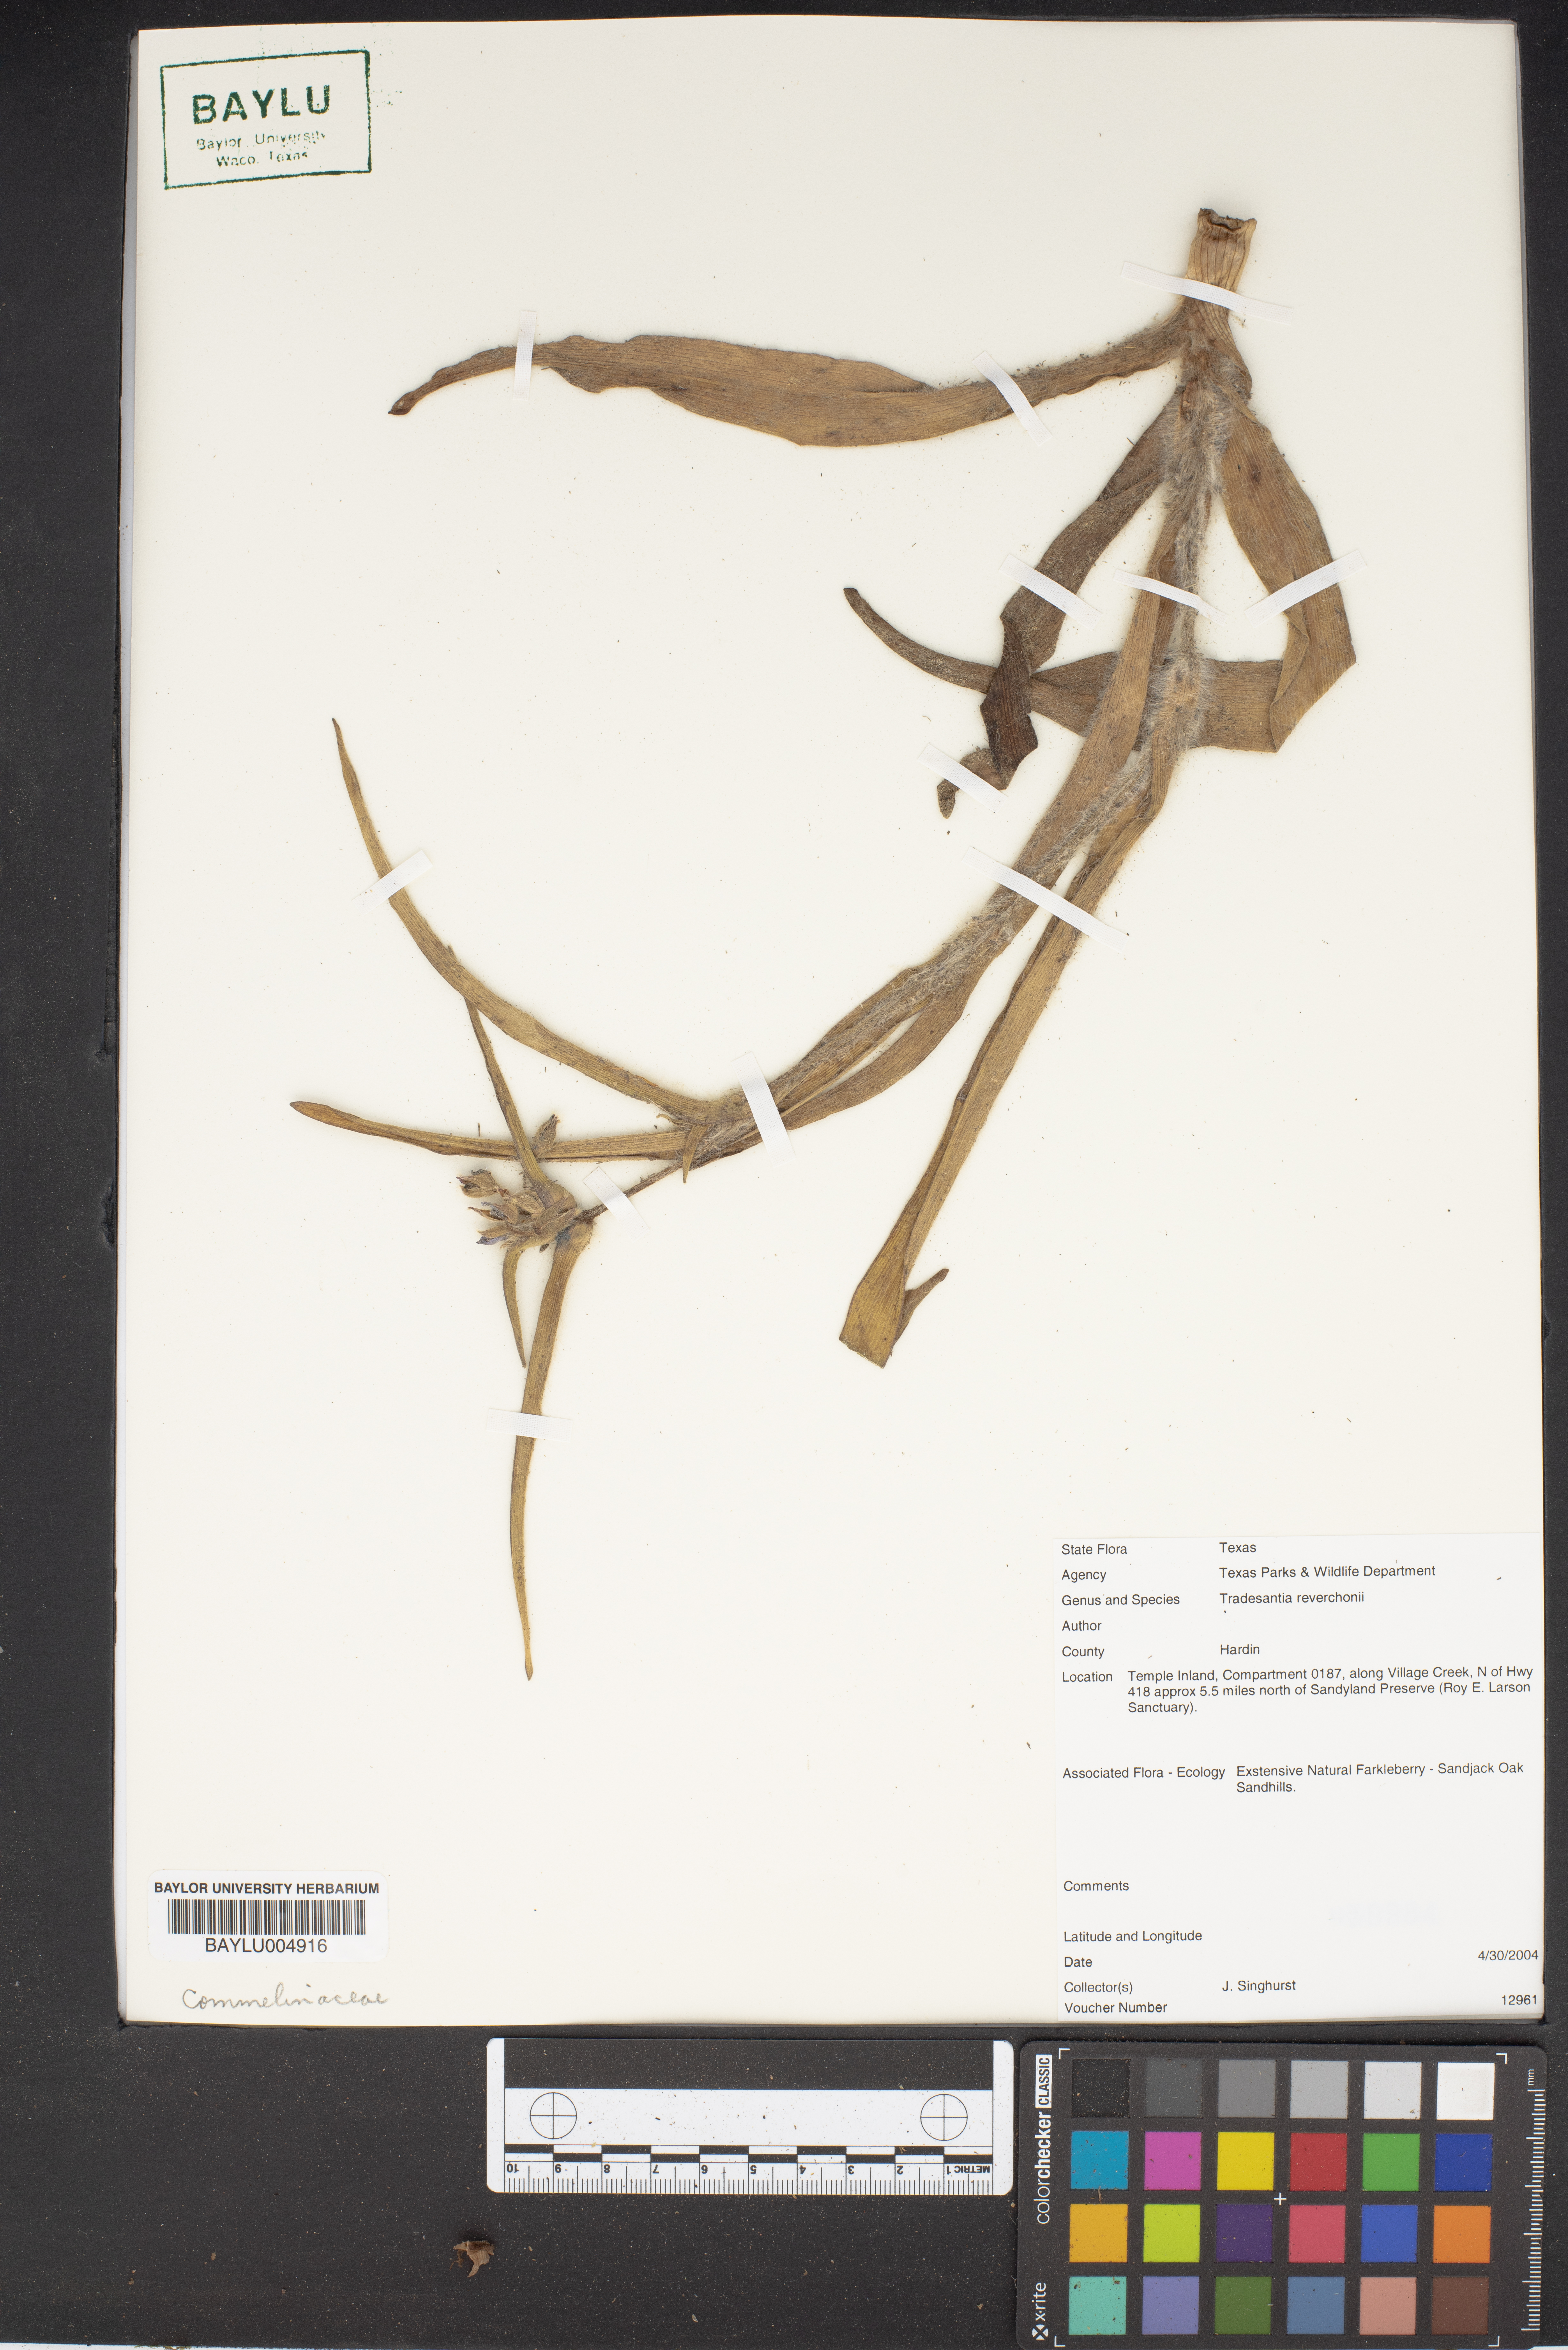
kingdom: Plantae
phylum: Tracheophyta
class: Liliopsida
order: Commelinales
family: Commelinaceae
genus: Tradescantia
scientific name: Tradescantia reverchonii
